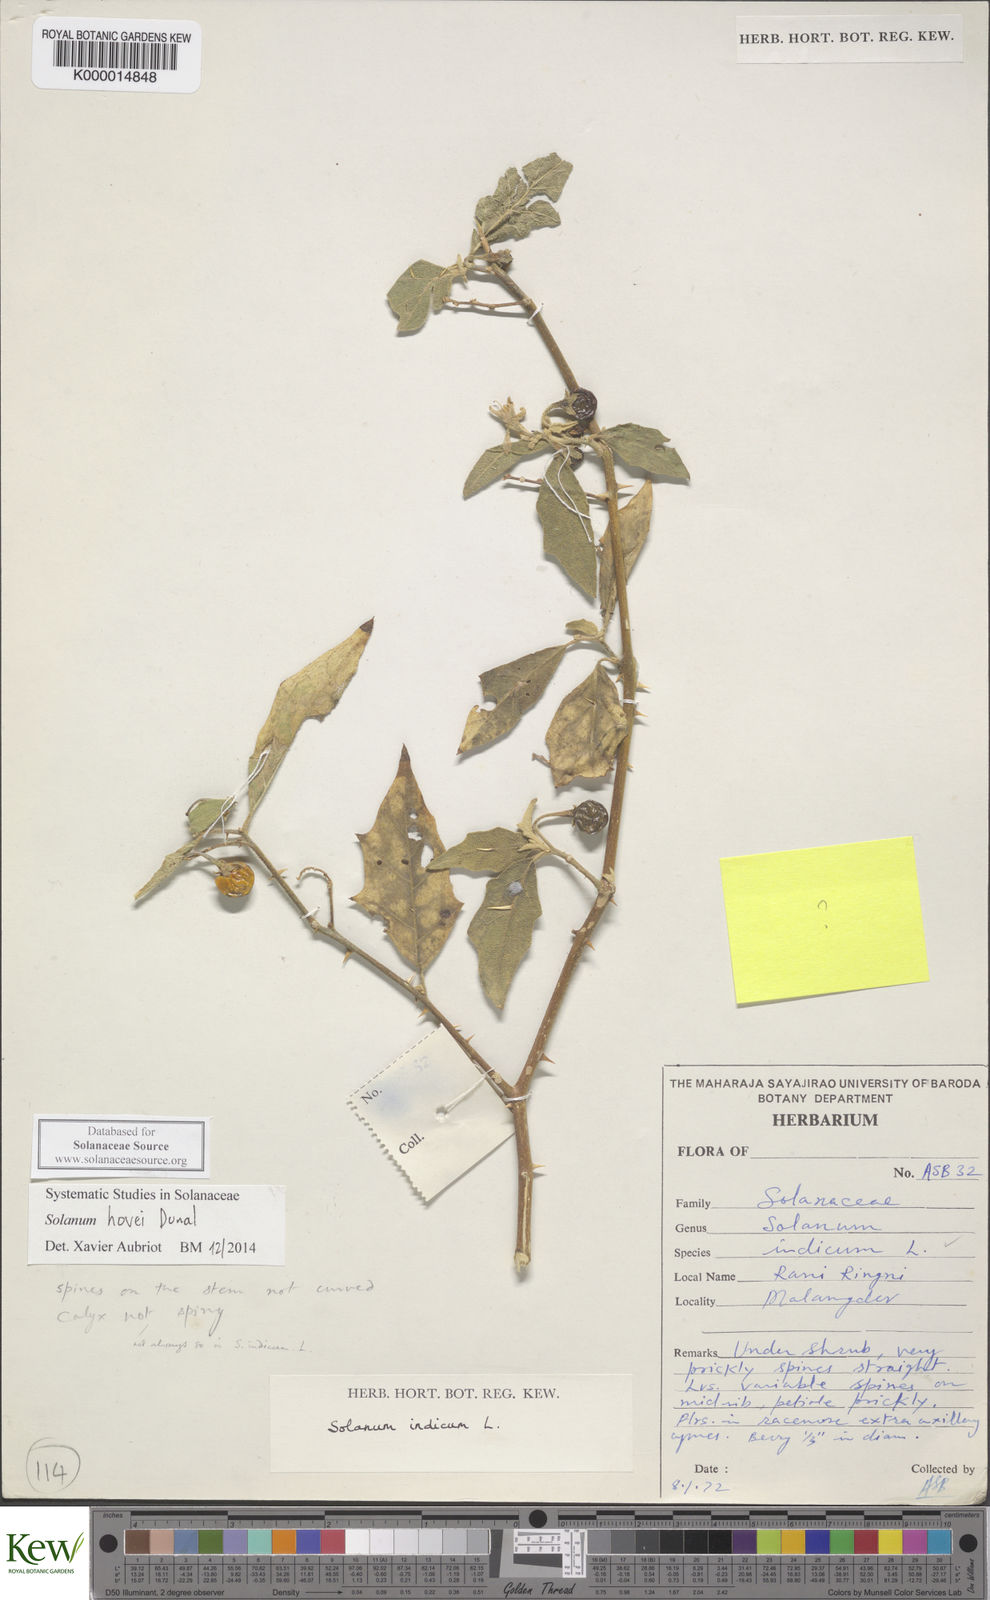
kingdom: Plantae
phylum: Tracheophyta
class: Magnoliopsida
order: Solanales
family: Solanaceae
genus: Solanum
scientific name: Solanum hovei
